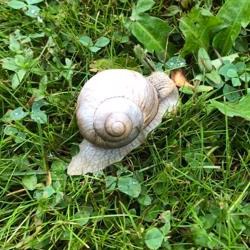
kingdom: Animalia
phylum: Mollusca
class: Gastropoda
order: Stylommatophora
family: Helicidae
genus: Helix
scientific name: Helix pomatia
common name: Vinbjergsnegl
